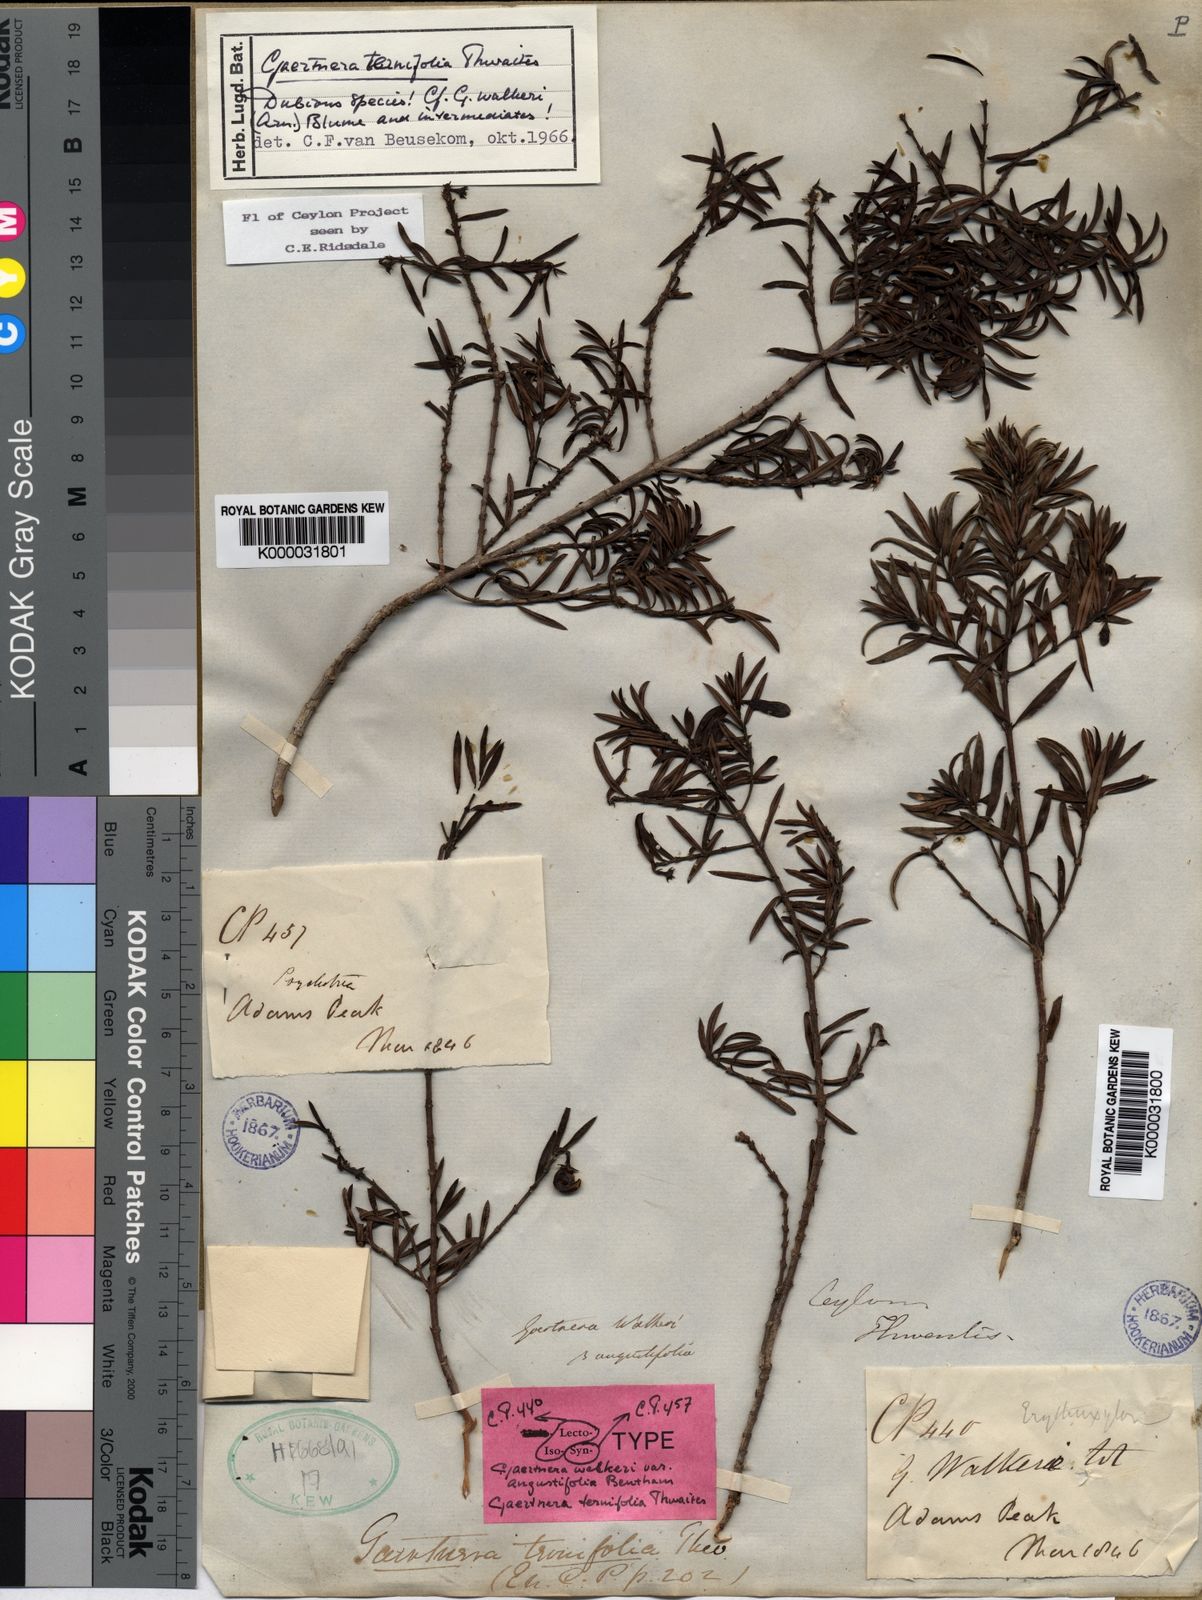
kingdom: Plantae
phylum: Tracheophyta
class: Magnoliopsida
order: Gentianales
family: Rubiaceae
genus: Gaertnera
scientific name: Gaertnera ternifolia
